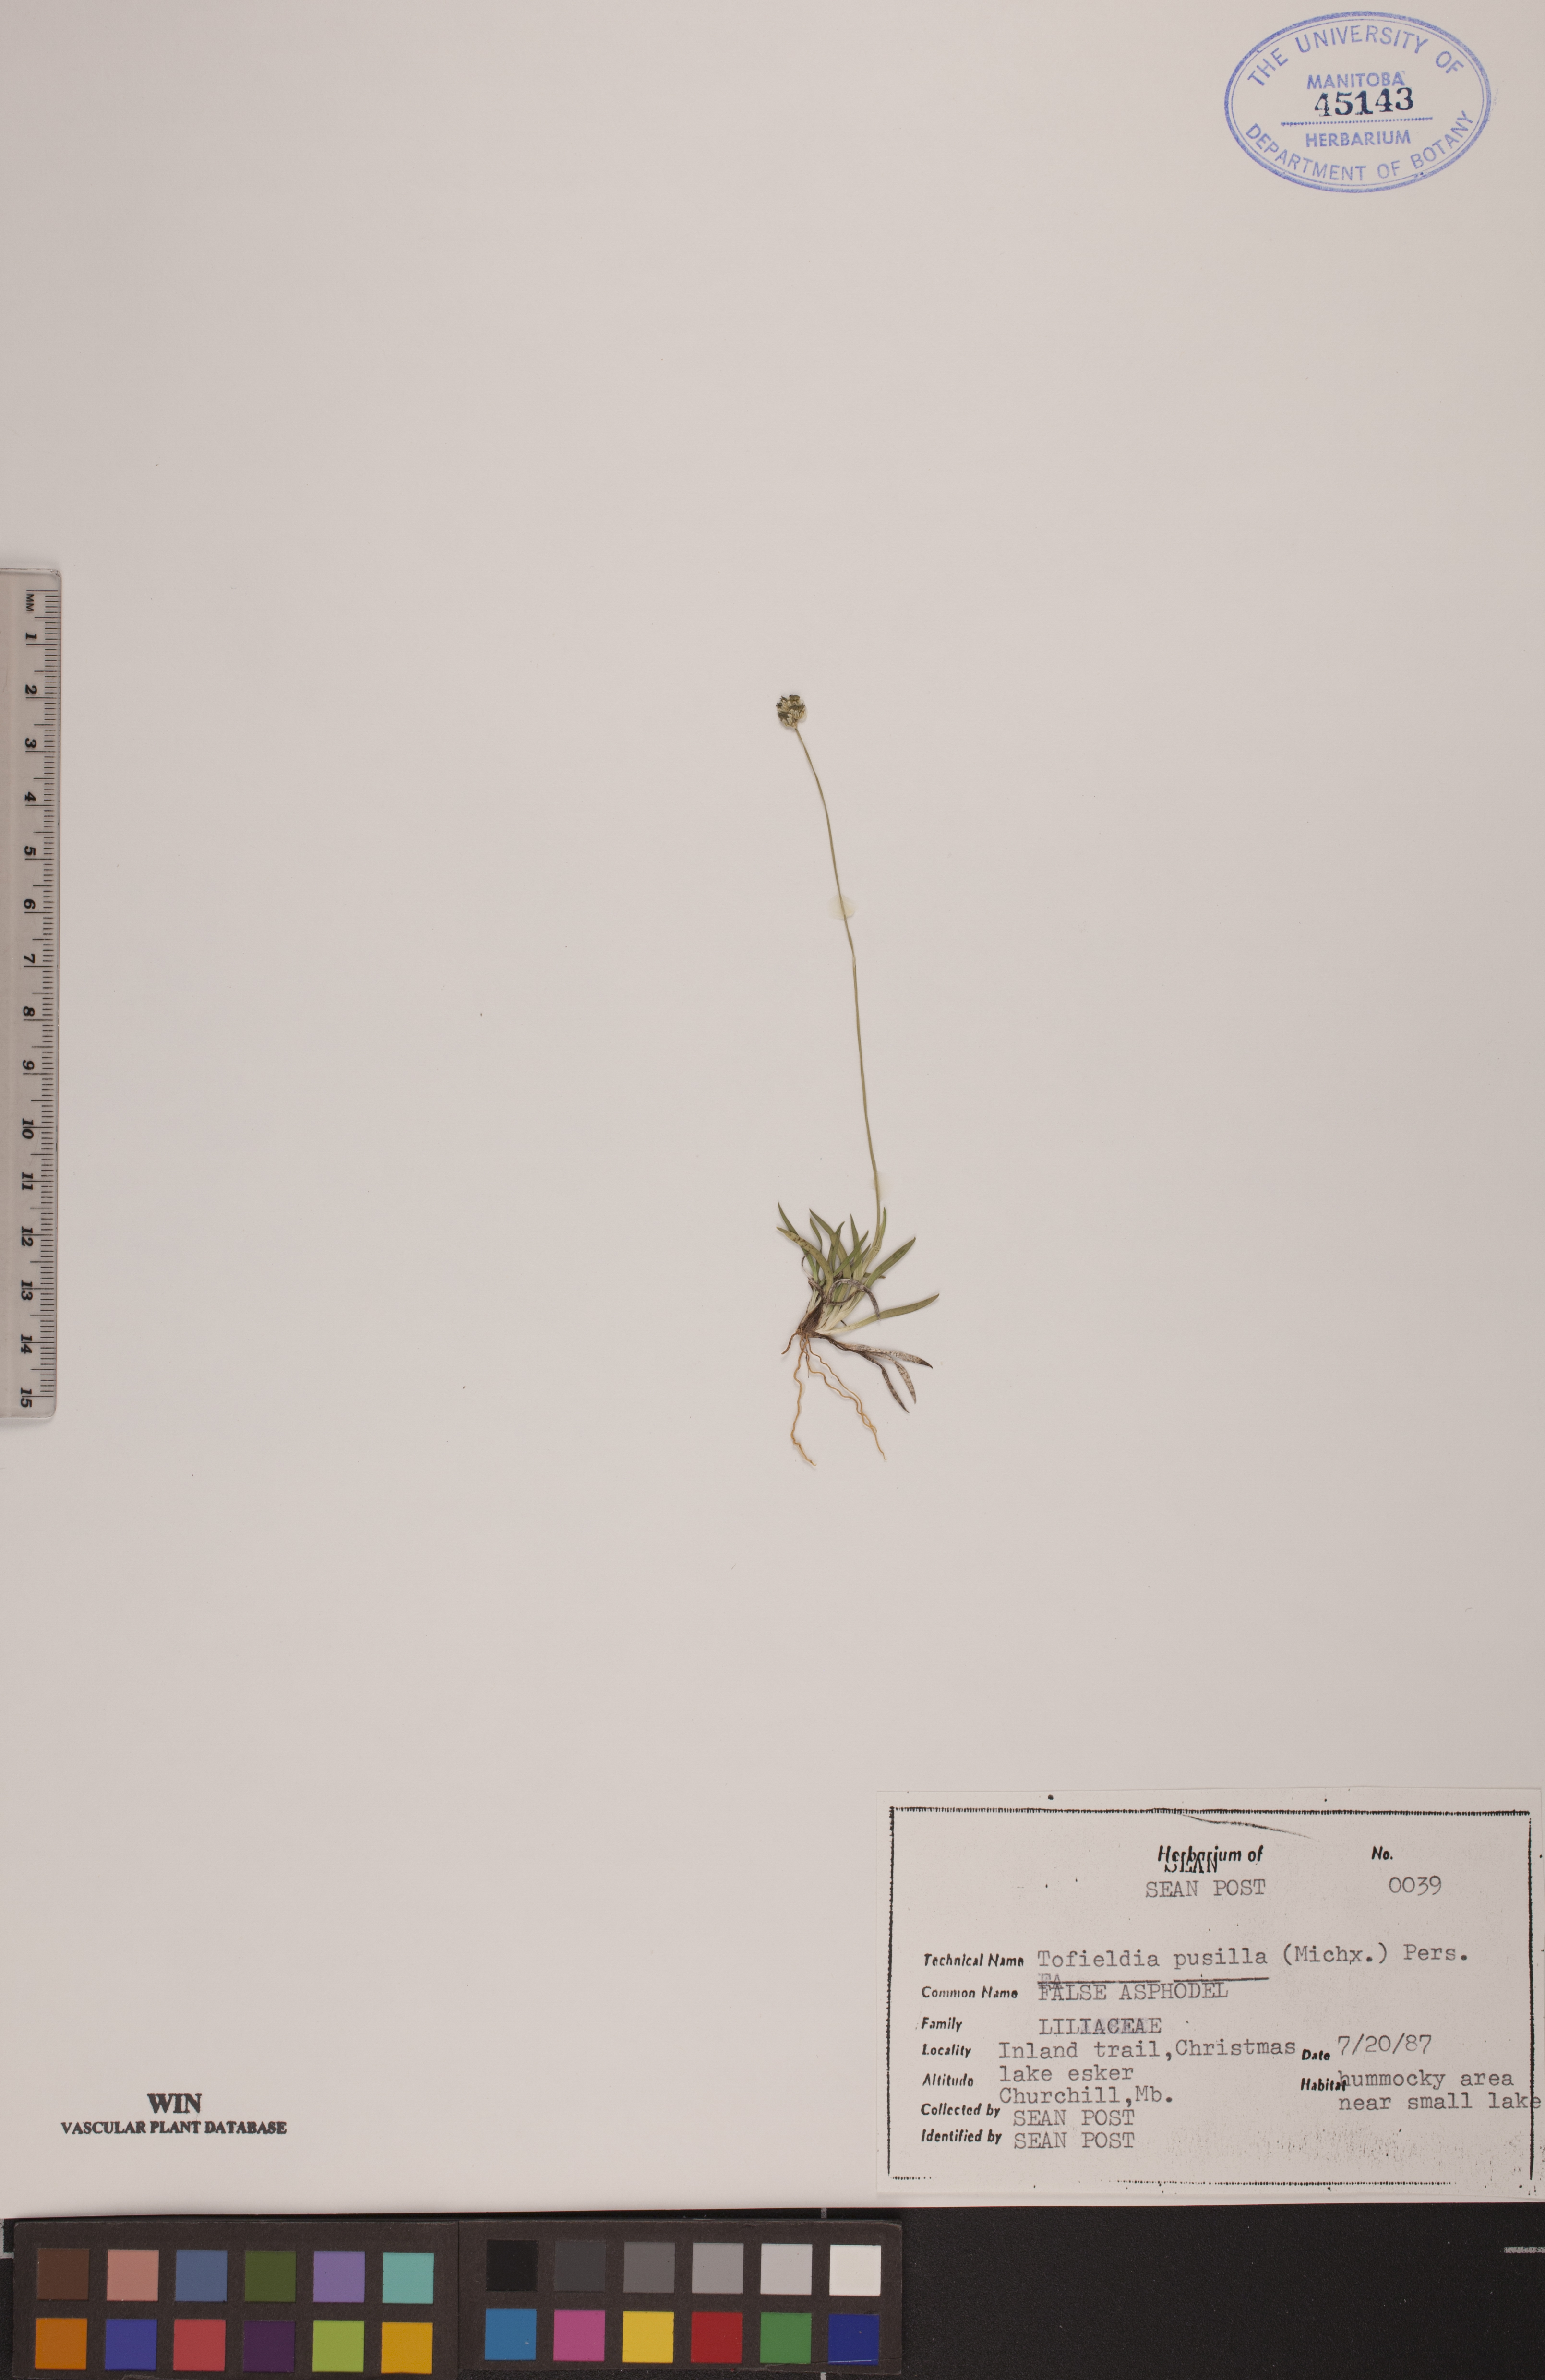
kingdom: Plantae
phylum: Tracheophyta
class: Liliopsida
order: Alismatales
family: Tofieldiaceae
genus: Tofieldia
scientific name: Tofieldia pusilla
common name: Scottish false asphodel
